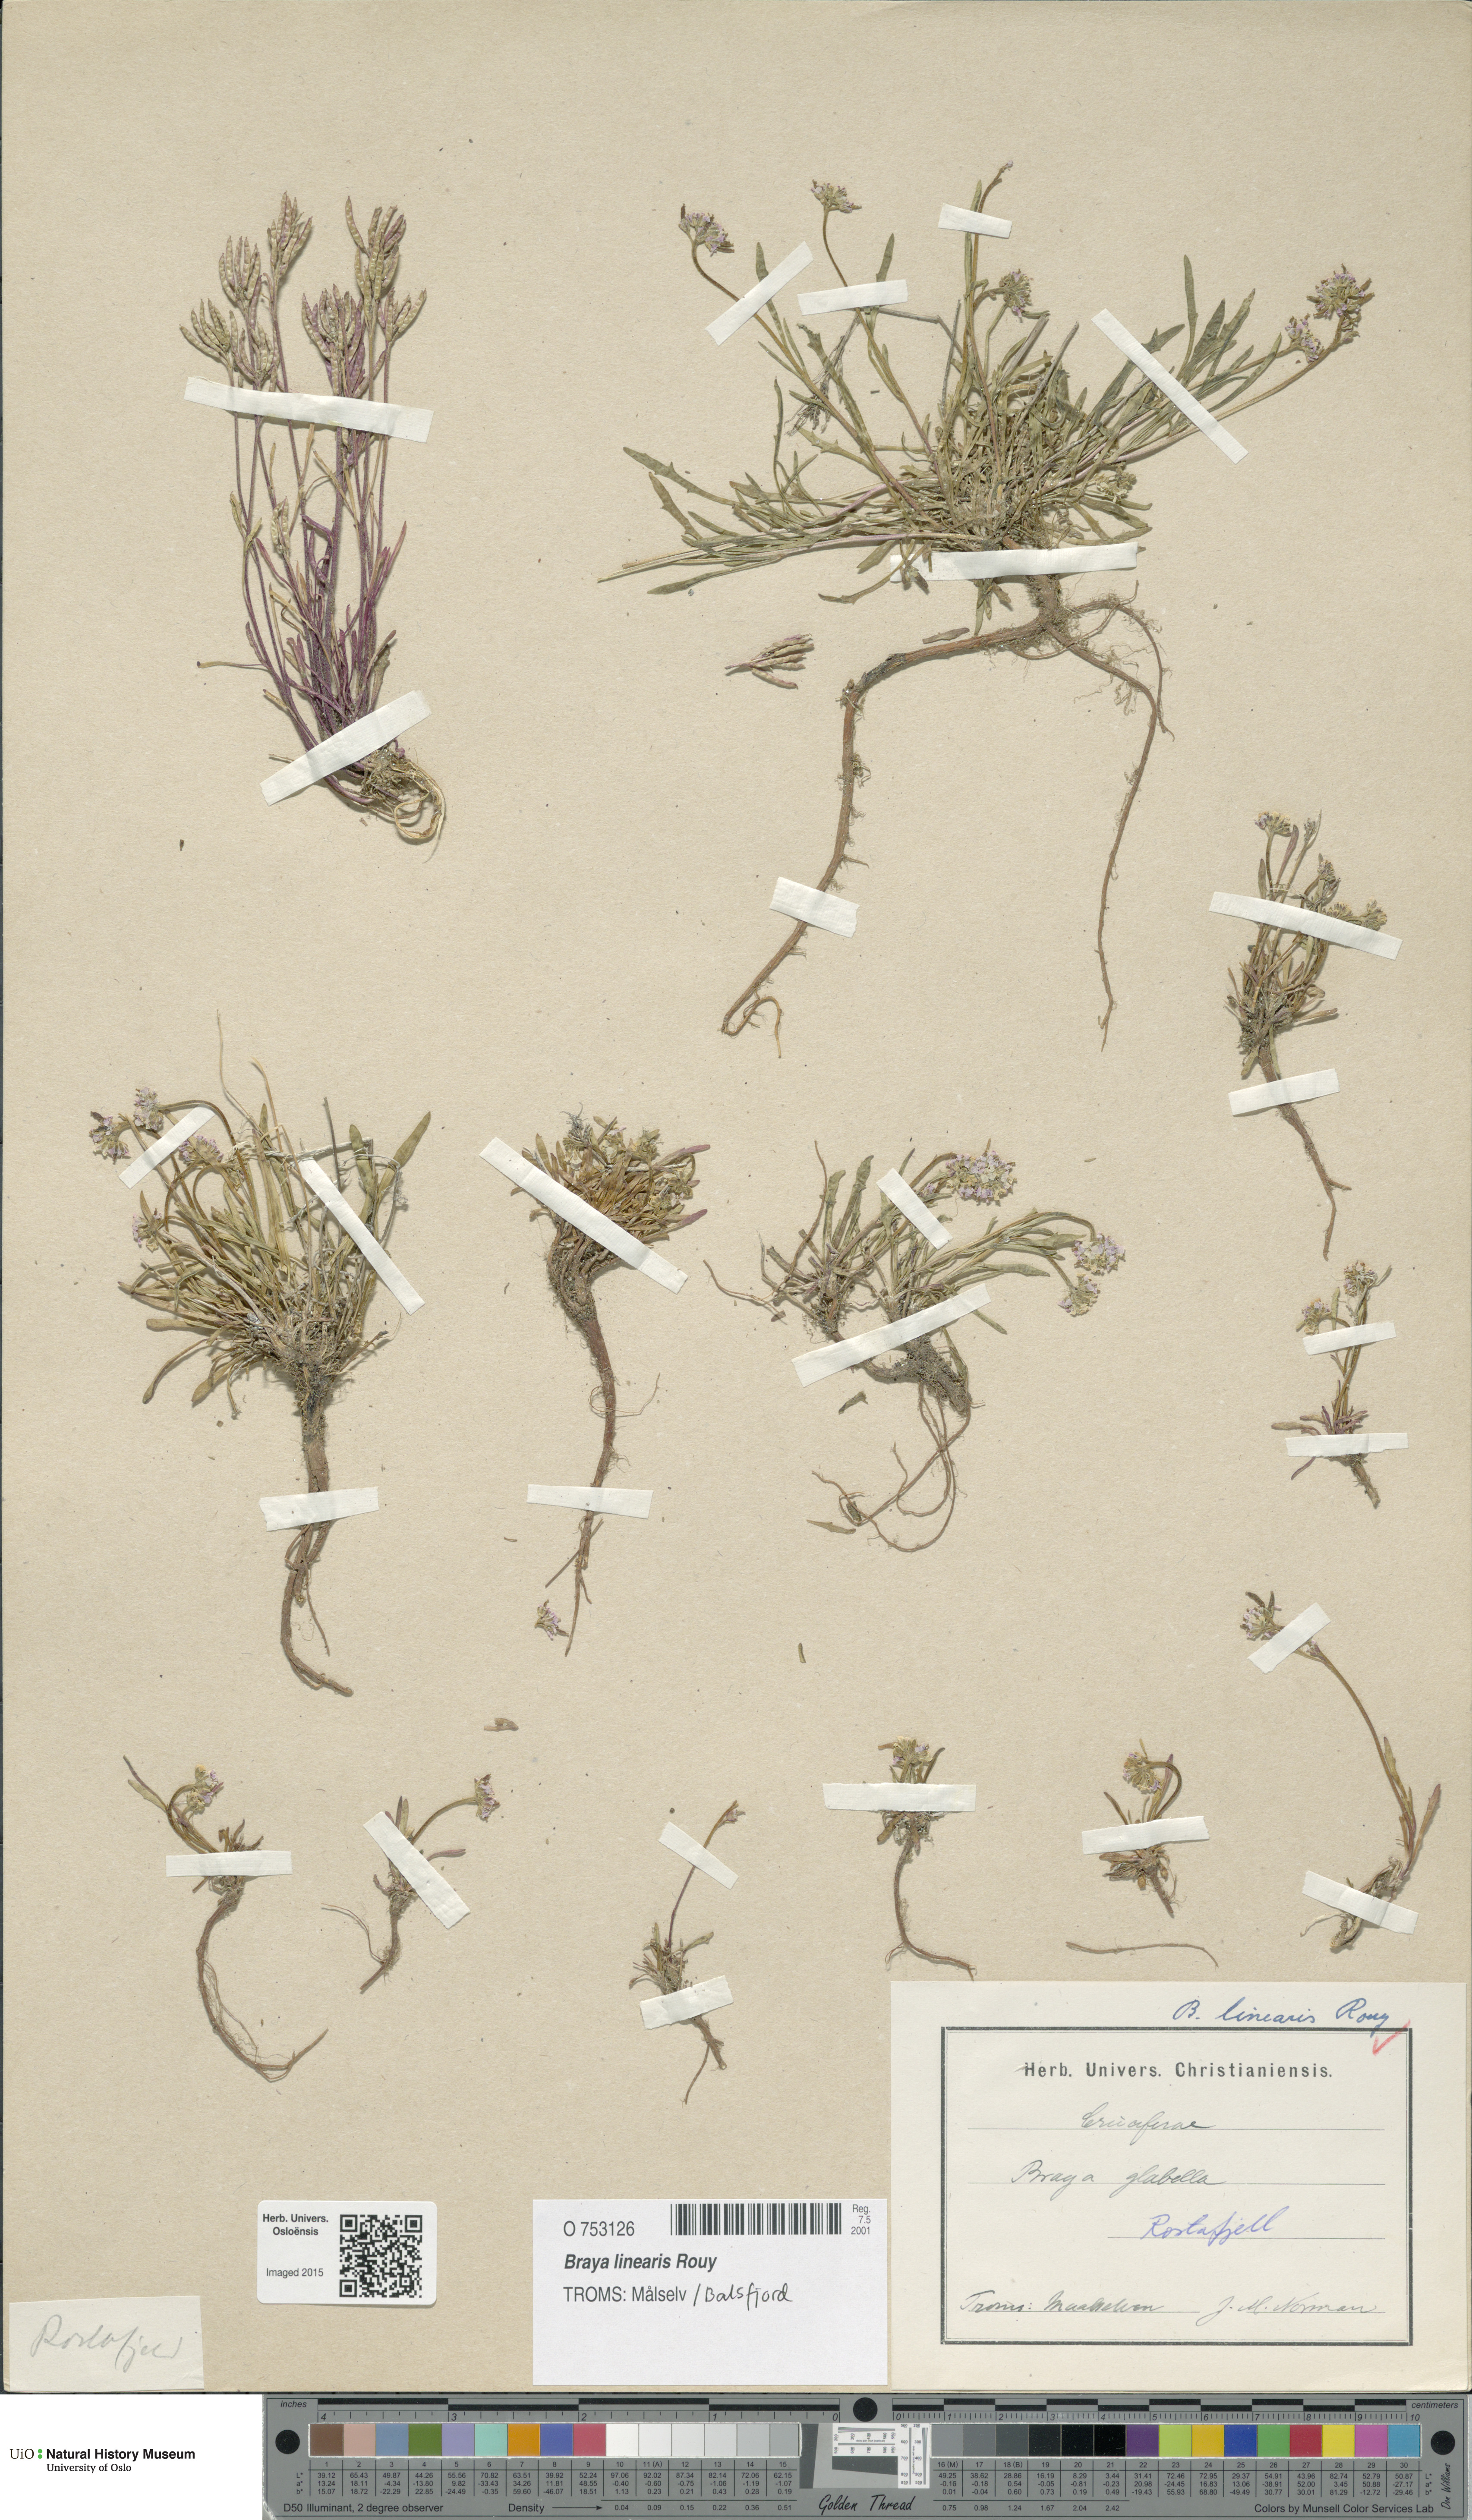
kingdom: Plantae
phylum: Tracheophyta
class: Magnoliopsida
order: Brassicales
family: Brassicaceae
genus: Braya
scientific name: Braya glabella
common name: Smooth braya
